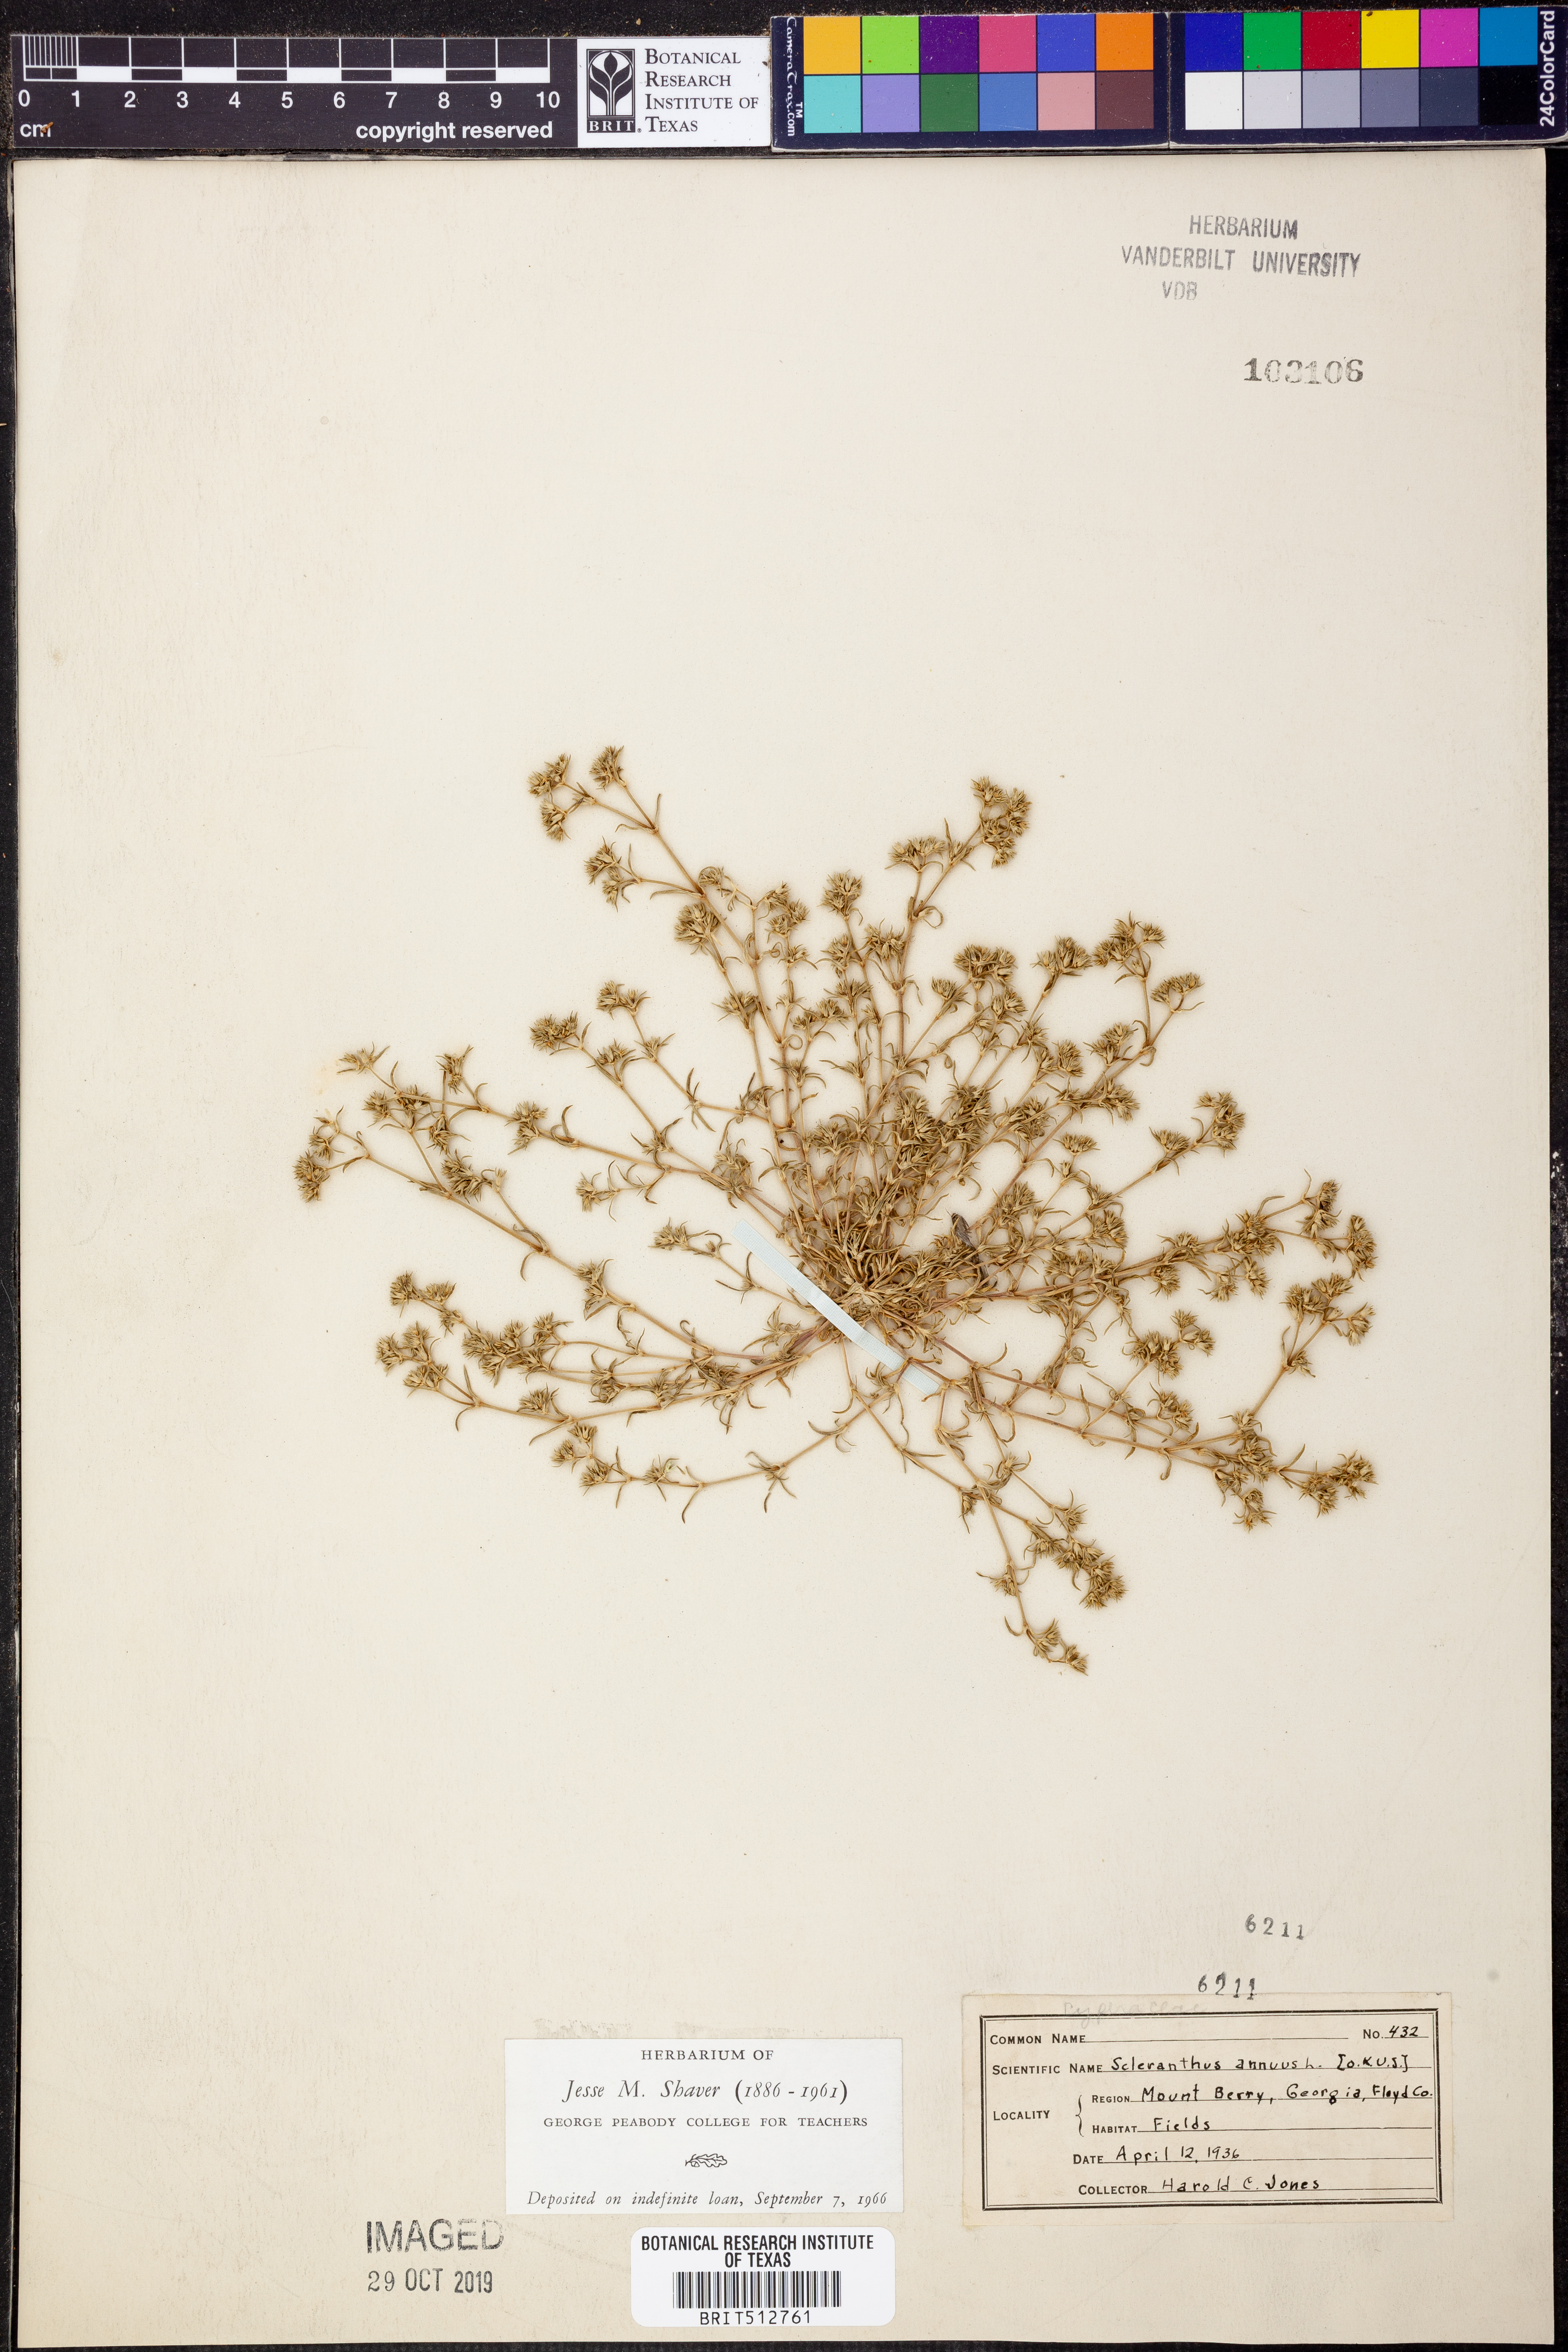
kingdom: Plantae
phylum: Tracheophyta
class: Magnoliopsida
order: Caryophyllales
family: Caryophyllaceae
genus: Scleranthus
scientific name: Scleranthus annuus
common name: Annual knawel
